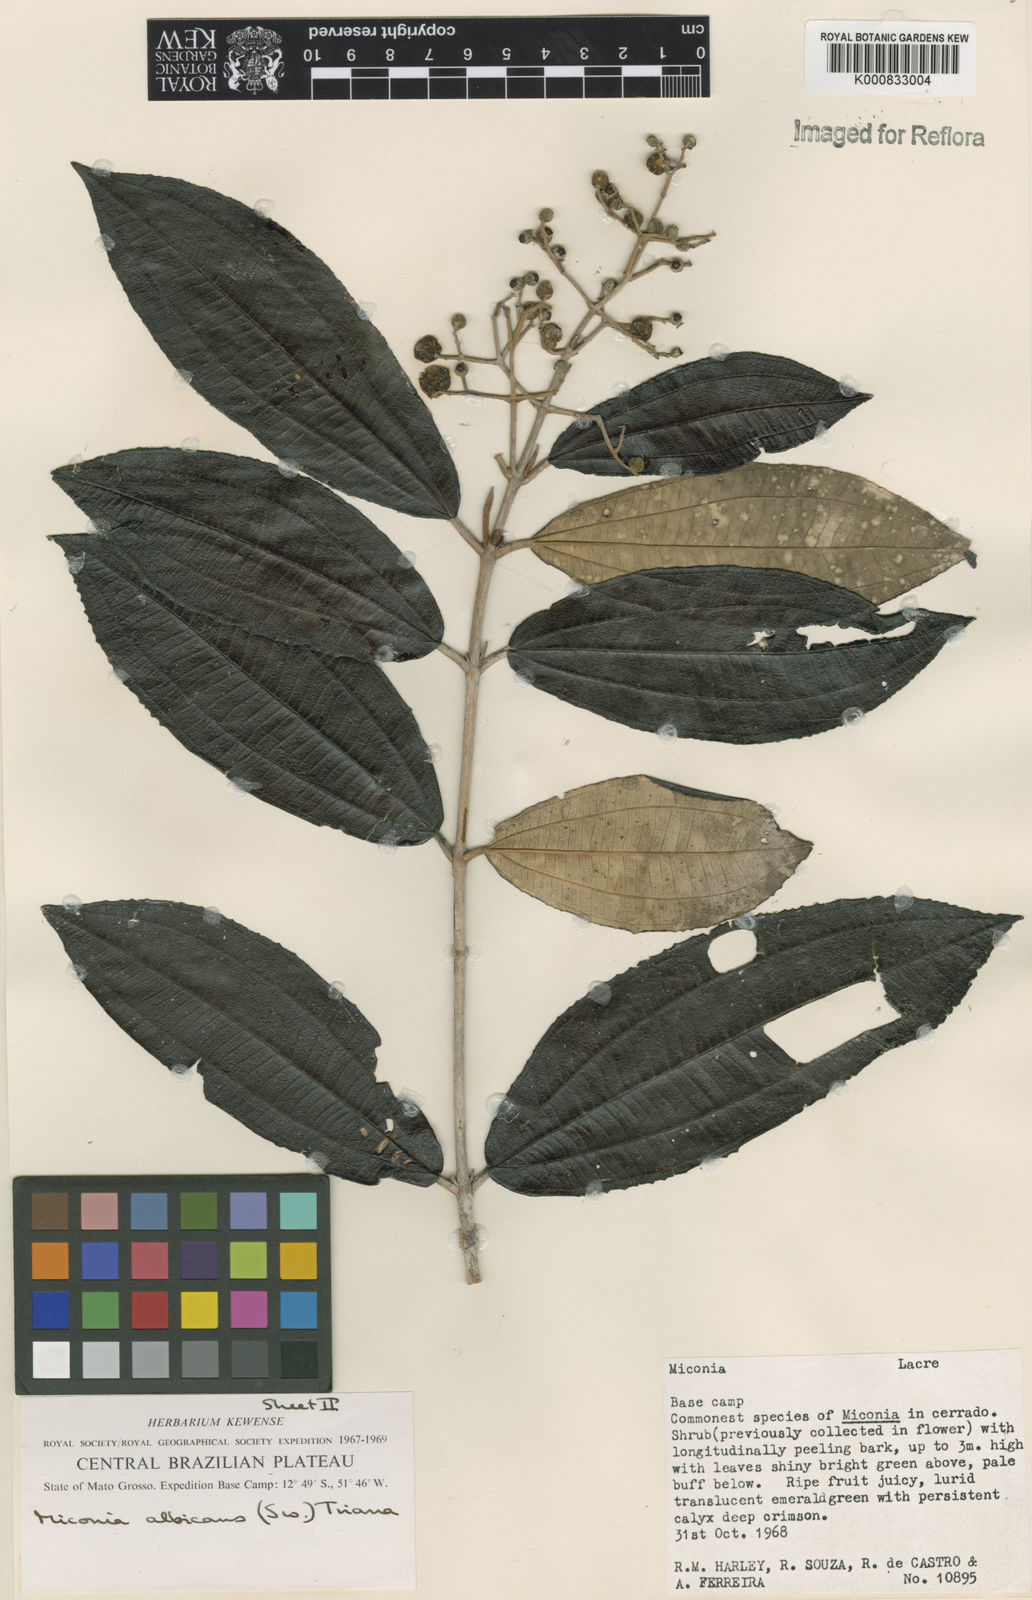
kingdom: Plantae
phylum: Tracheophyta
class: Magnoliopsida
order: Myrtales
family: Melastomataceae
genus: Miconia
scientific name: Miconia albicans
